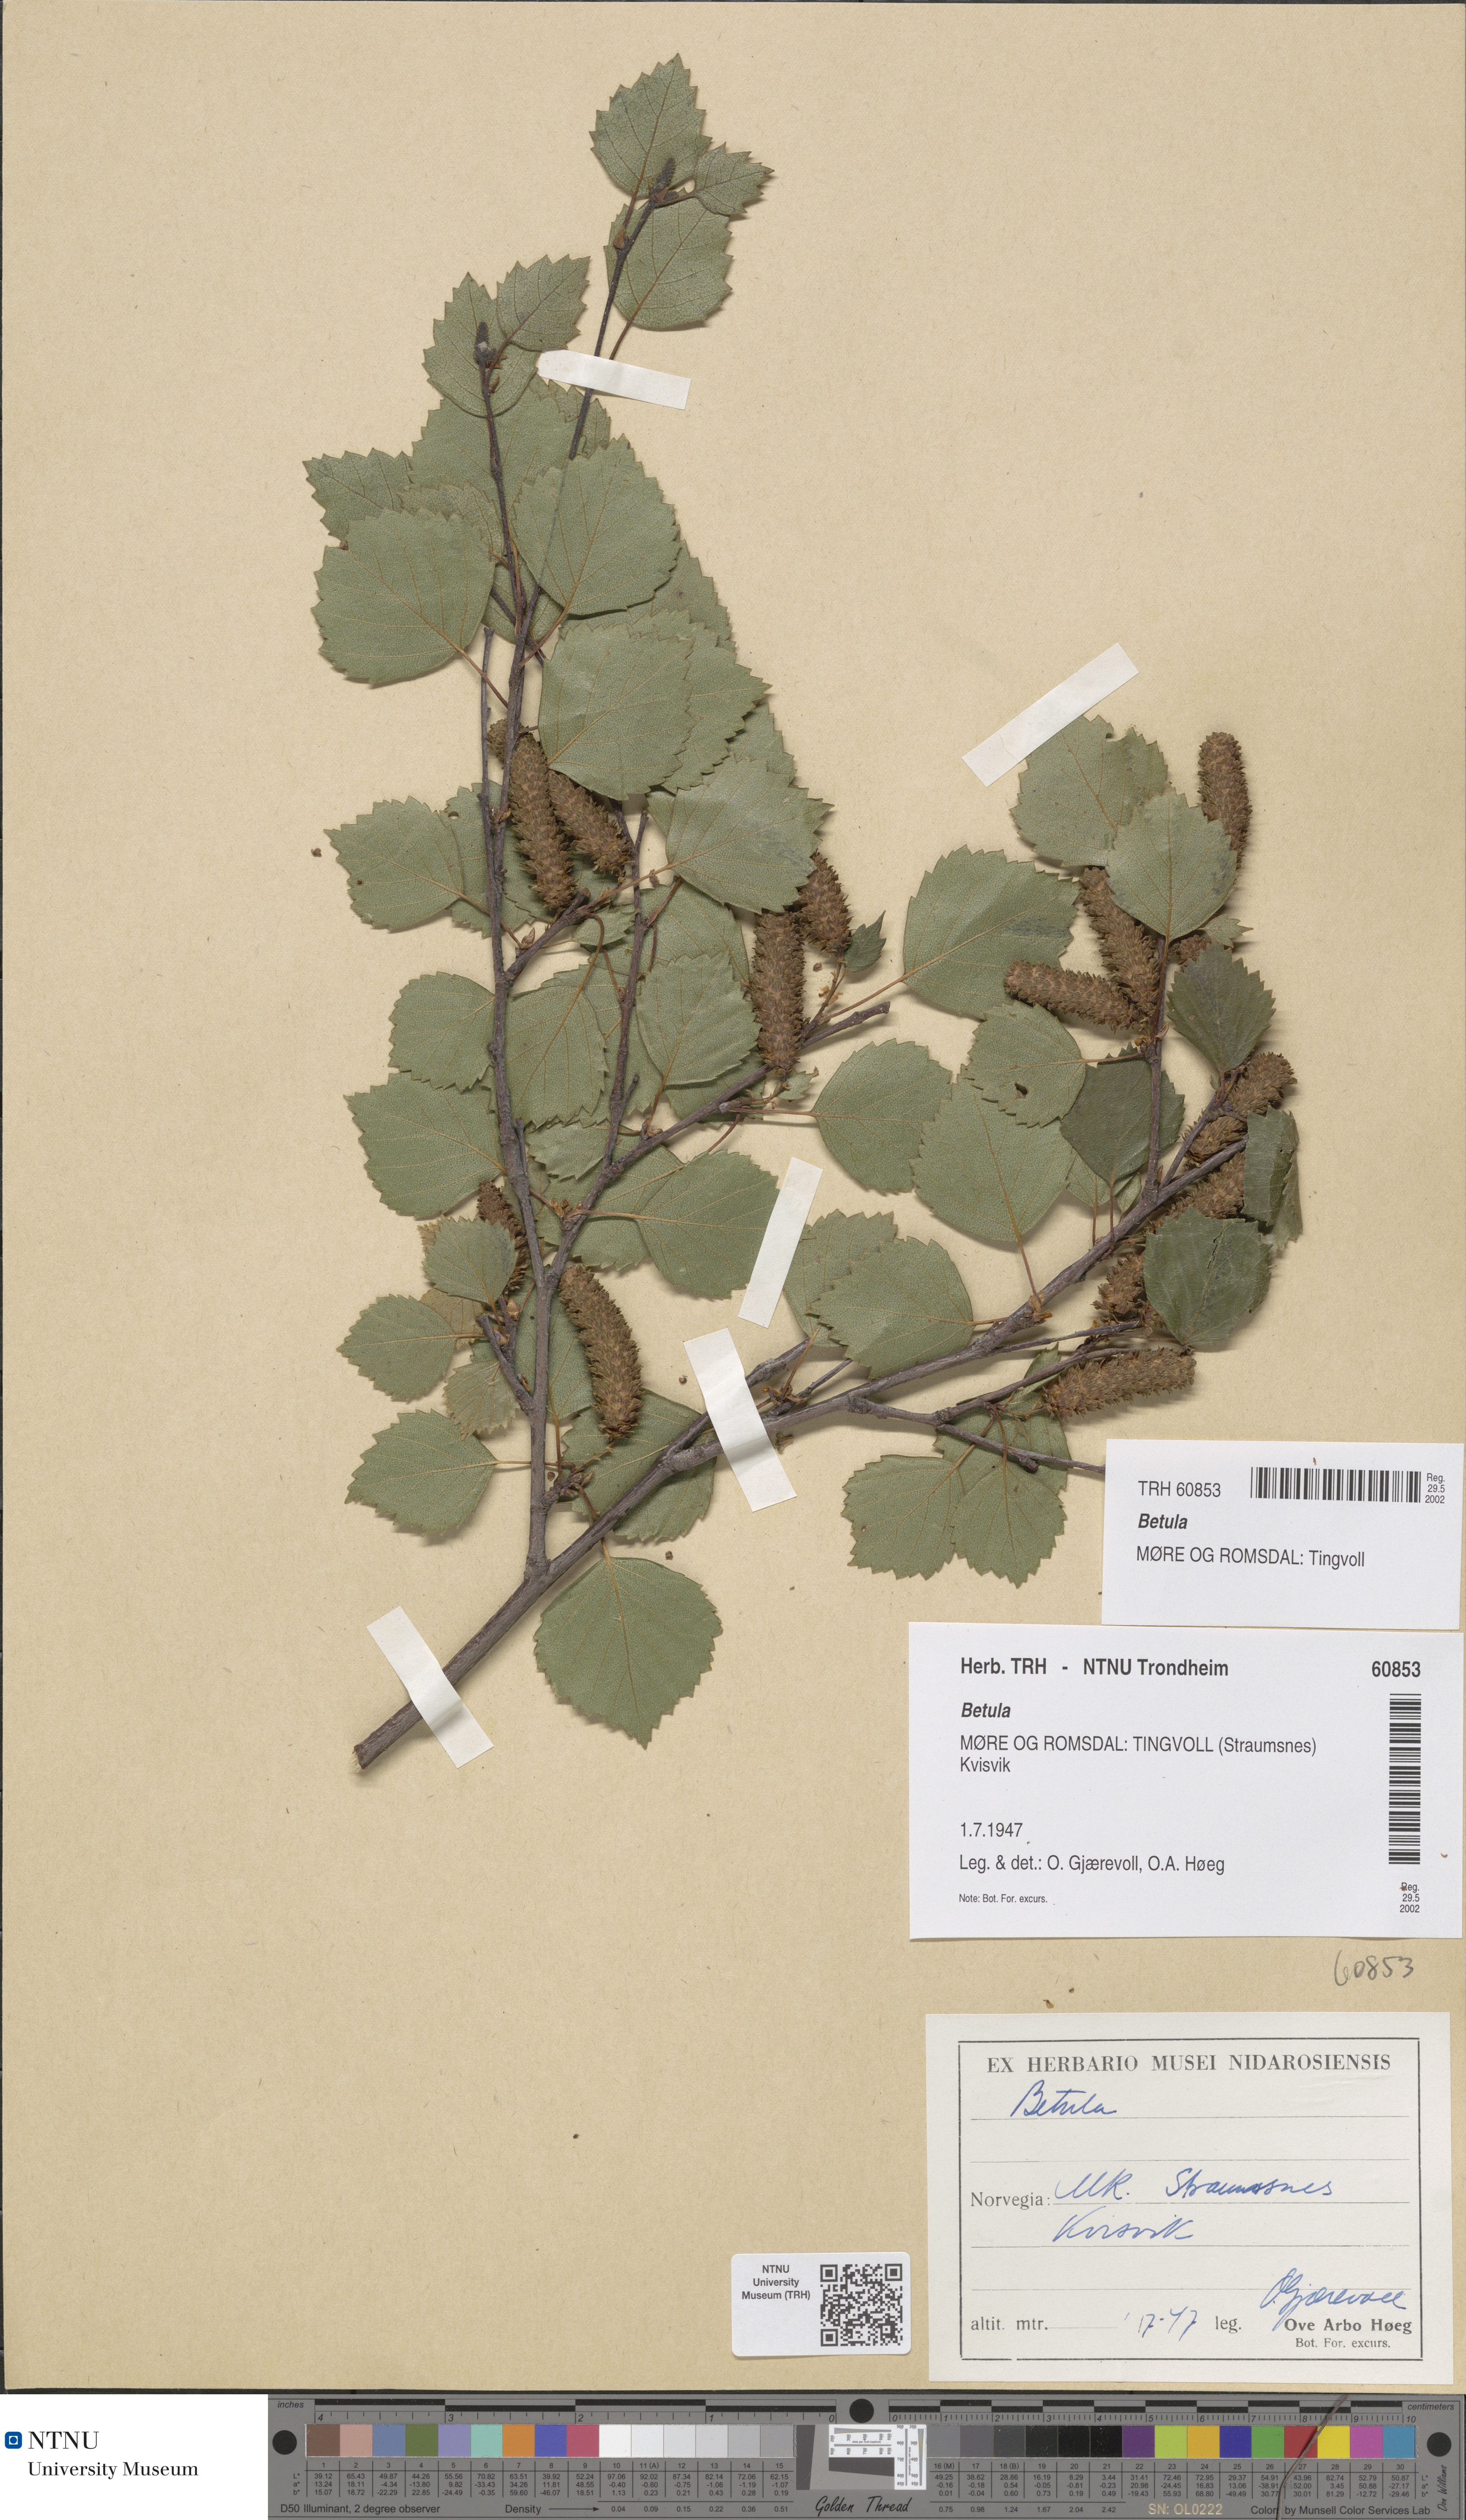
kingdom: Plantae
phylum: Tracheophyta
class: Magnoliopsida
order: Fagales
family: Betulaceae
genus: Betula
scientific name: Betula
